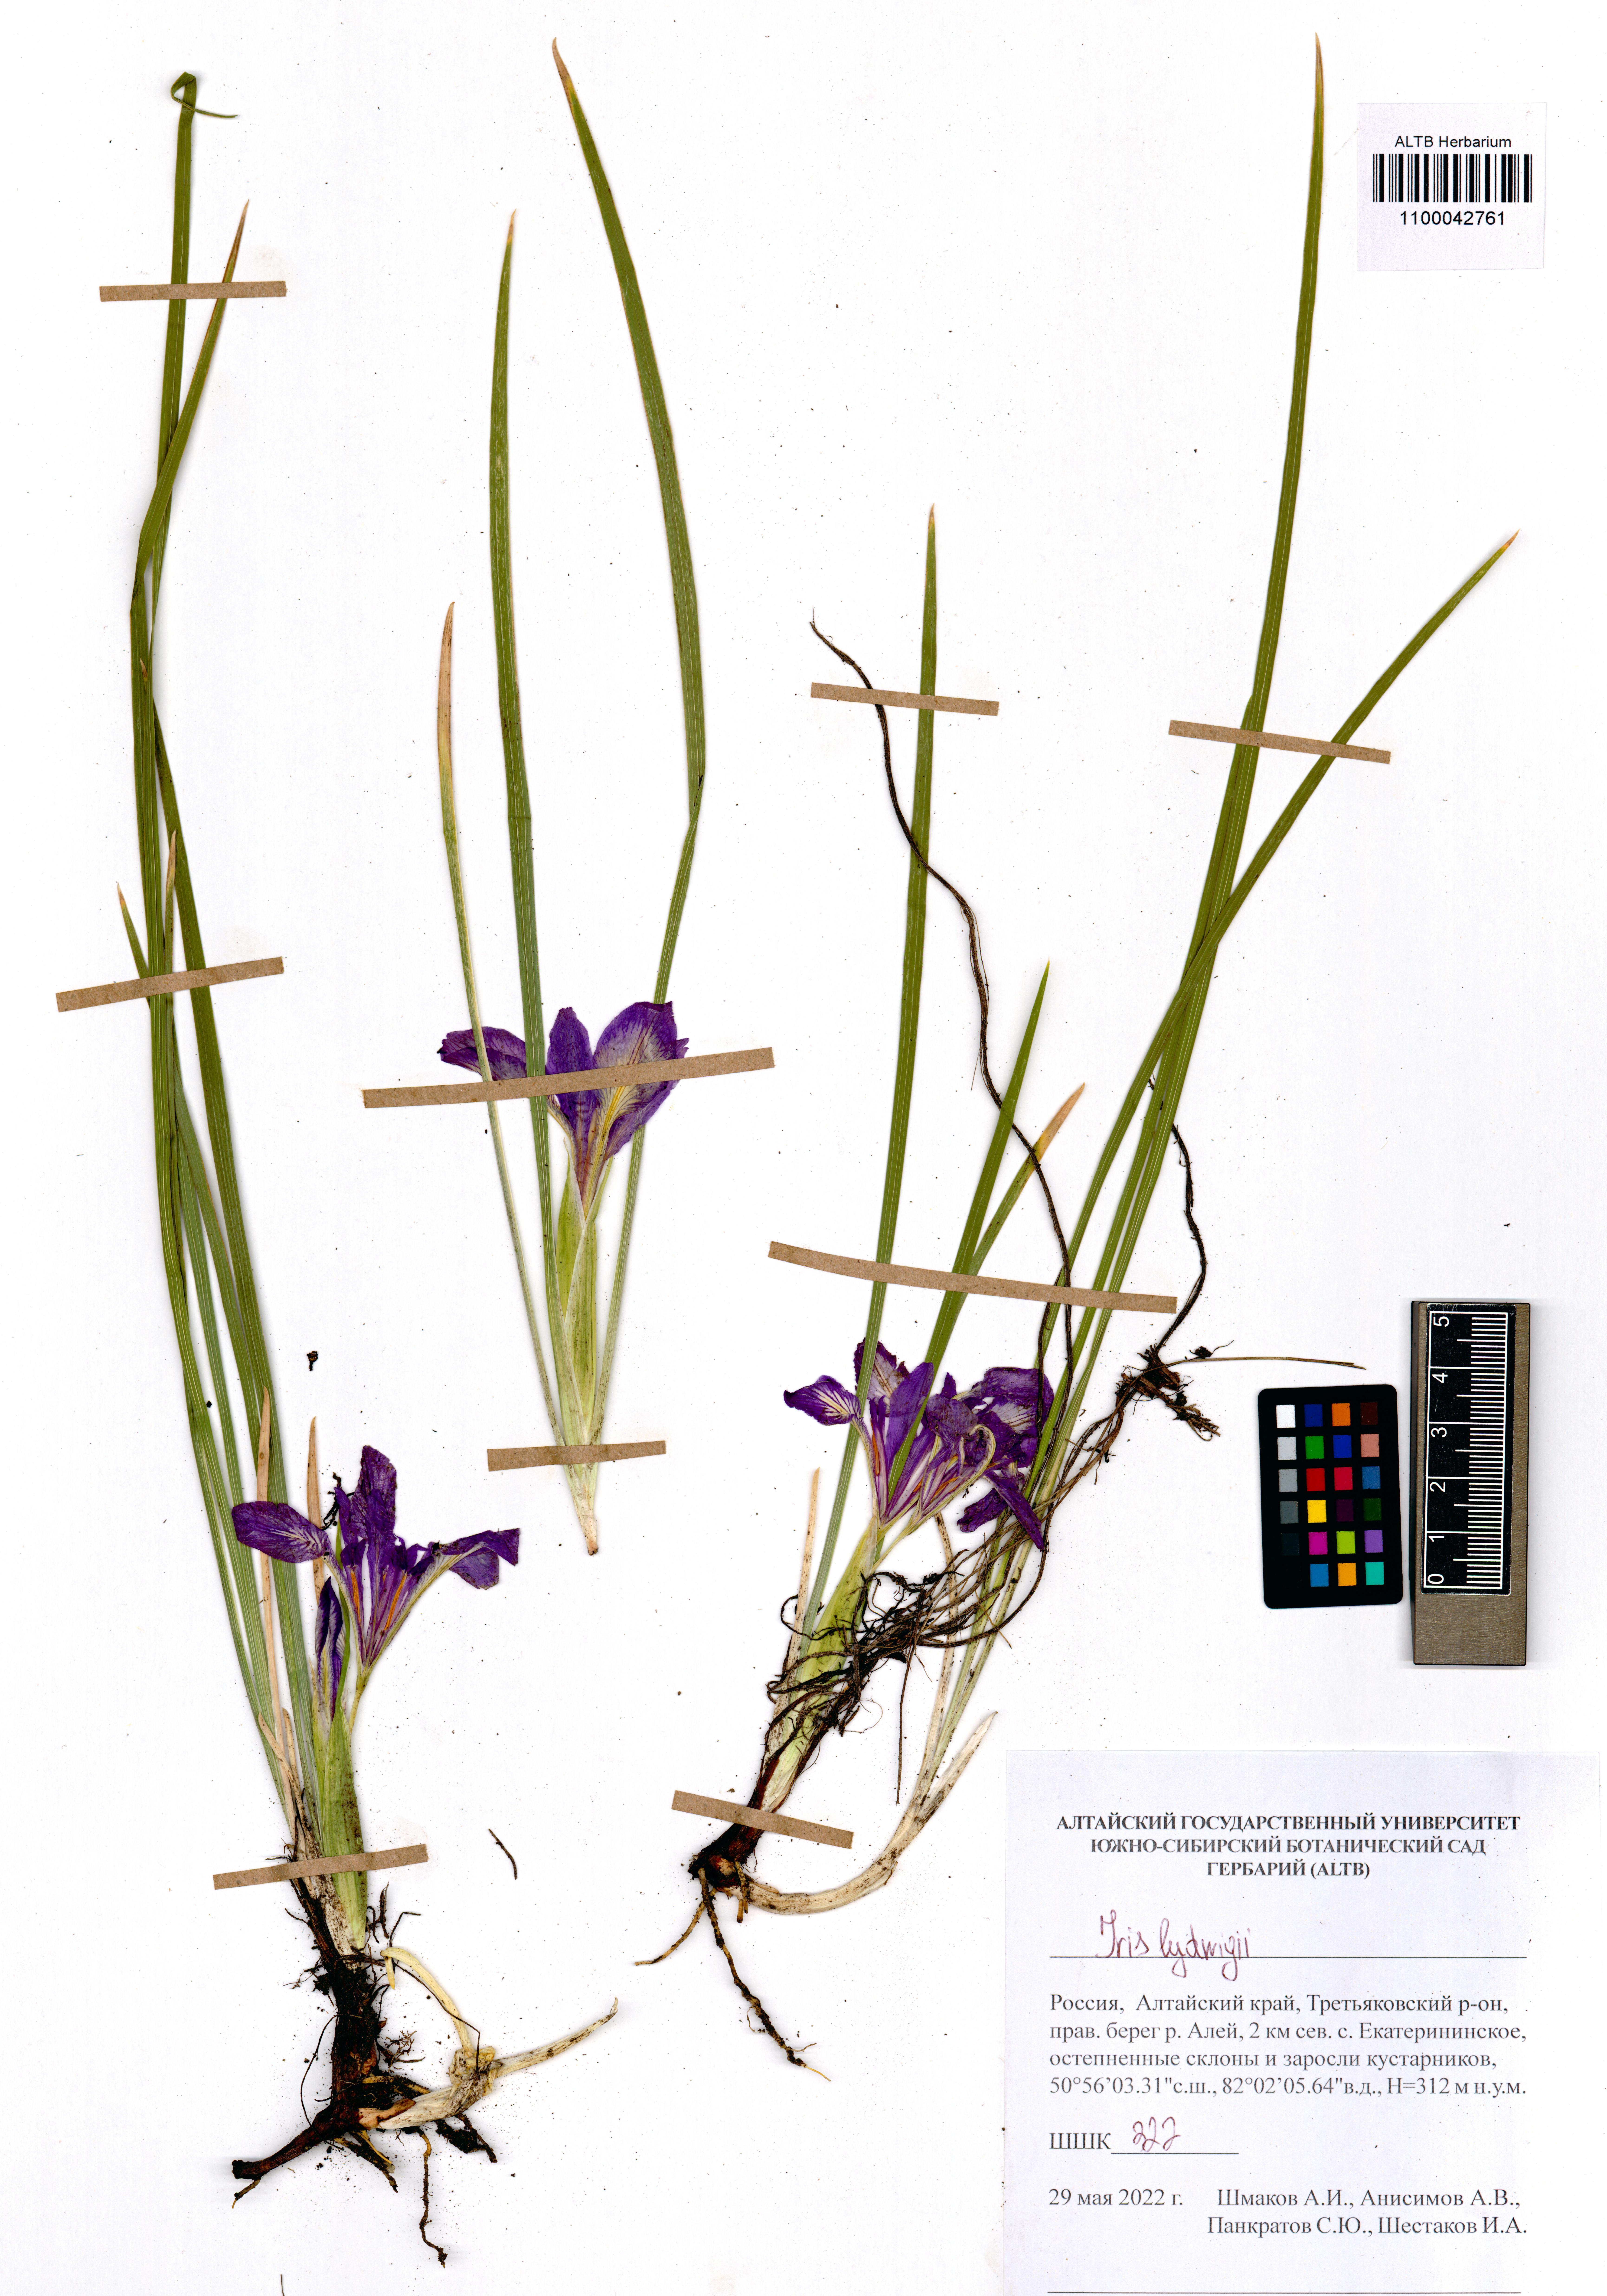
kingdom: Plantae
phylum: Tracheophyta
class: Liliopsida
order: Asparagales
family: Iridaceae
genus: Iris
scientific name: Iris ludwigii
